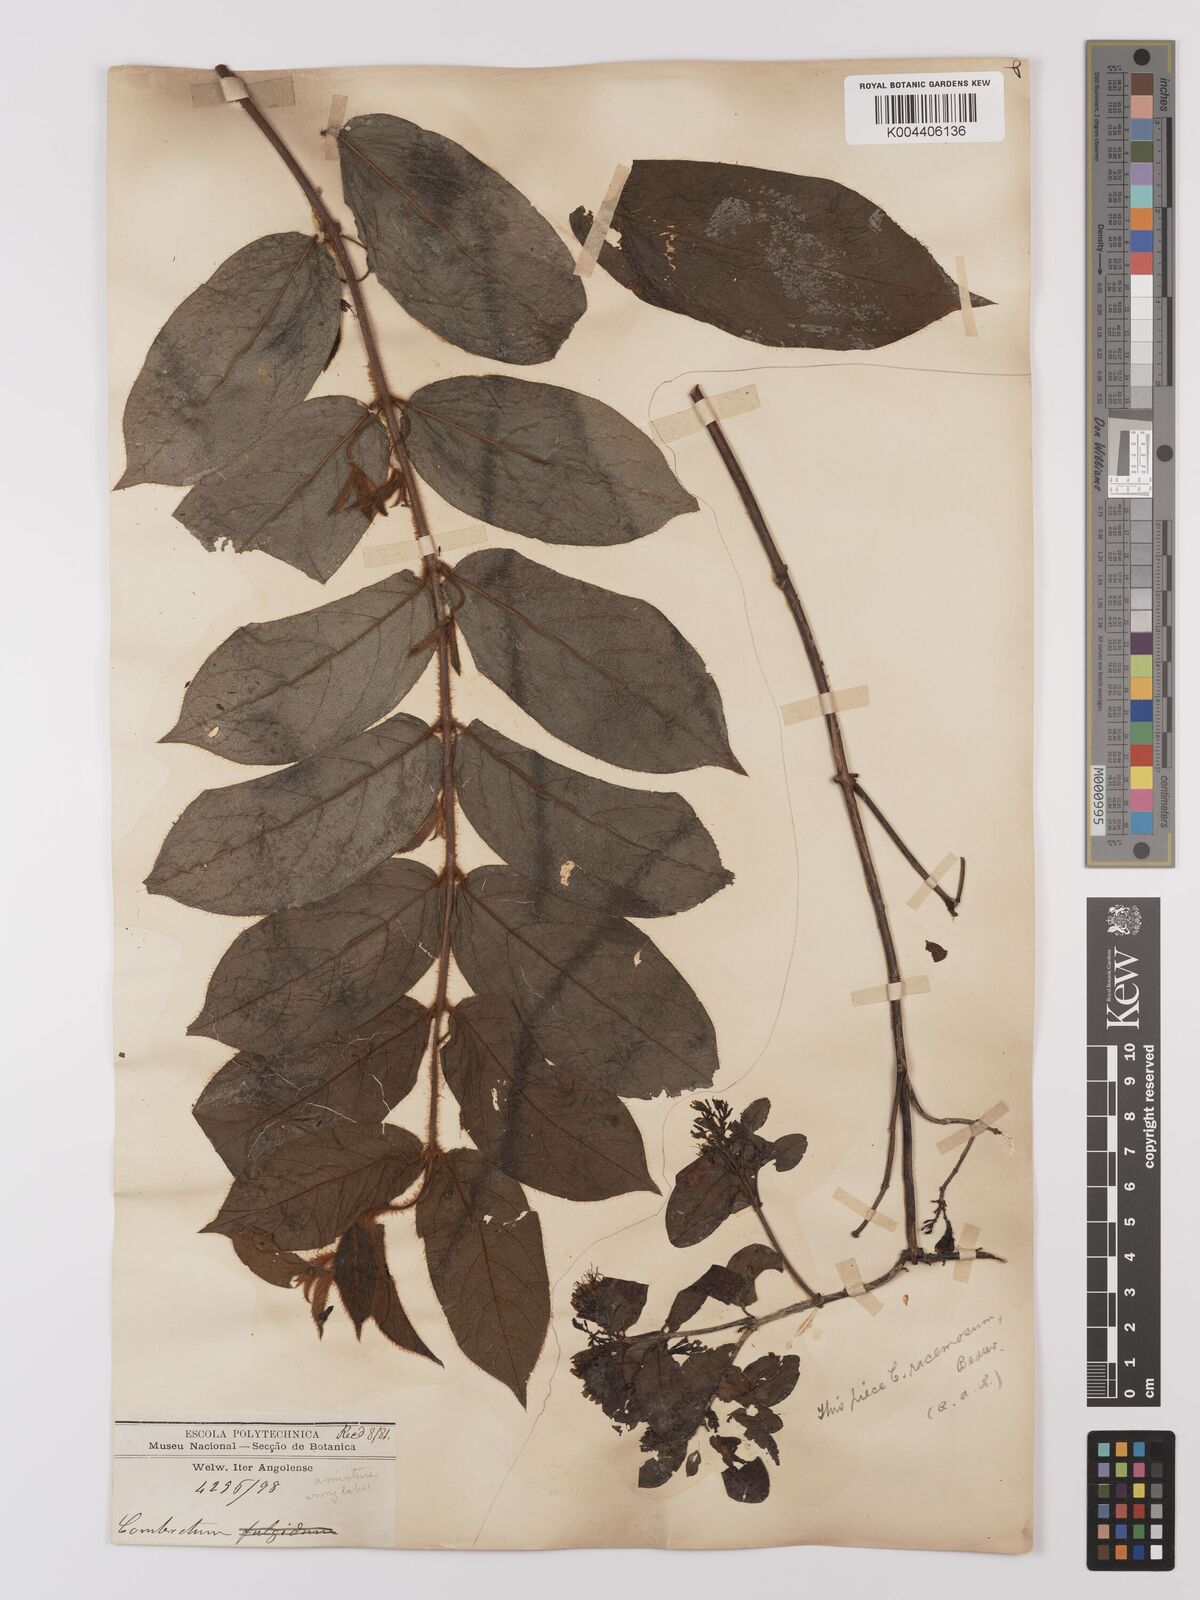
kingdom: Plantae
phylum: Tracheophyta
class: Magnoliopsida
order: Myrtales
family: Combretaceae
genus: Combretum
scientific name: Combretum racemosum
